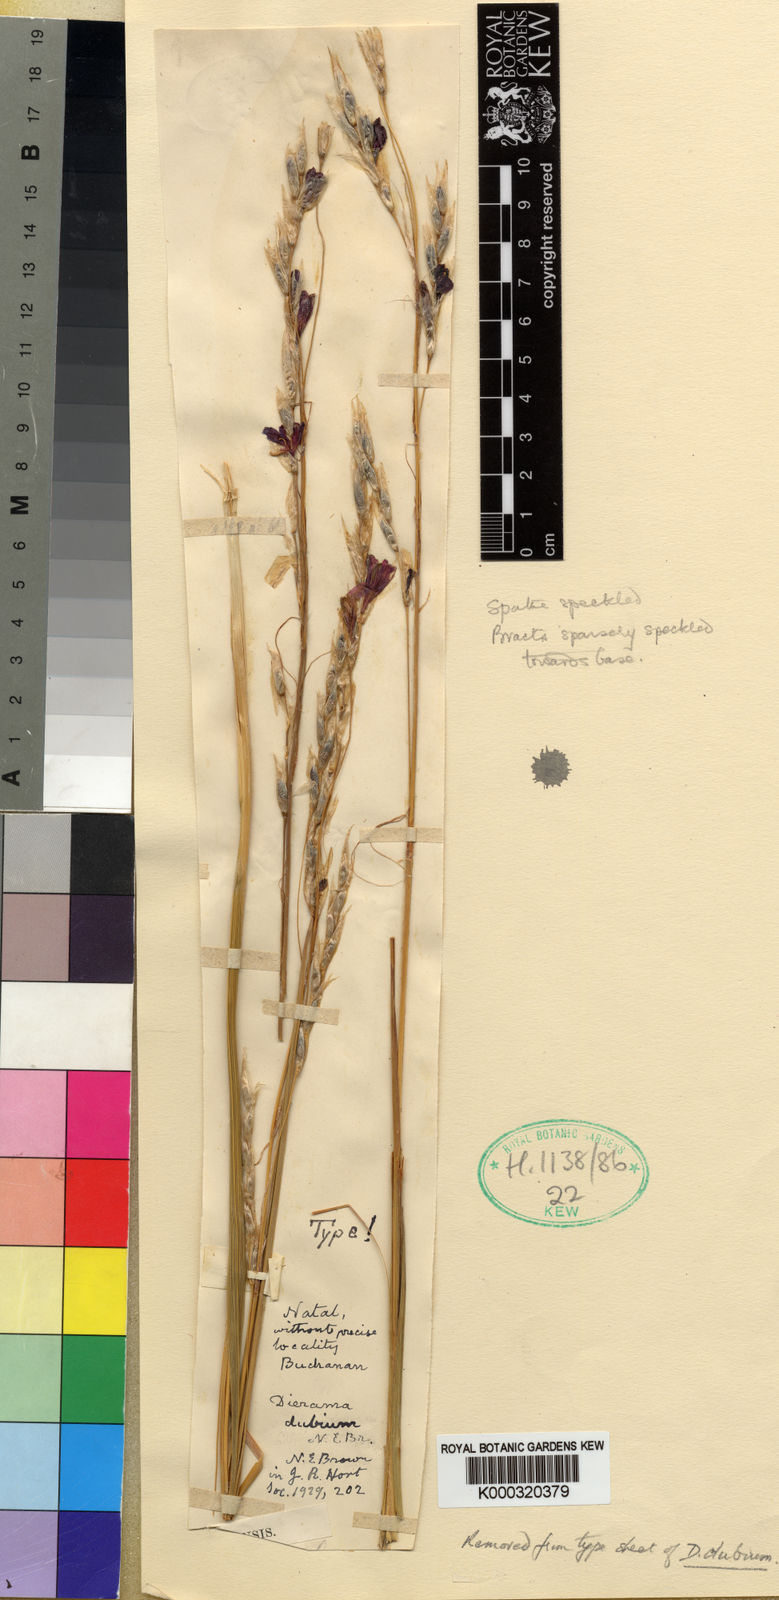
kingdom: Plantae
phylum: Tracheophyta
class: Liliopsida
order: Asparagales
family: Iridaceae
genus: Dierama
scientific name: Dierama dubium
